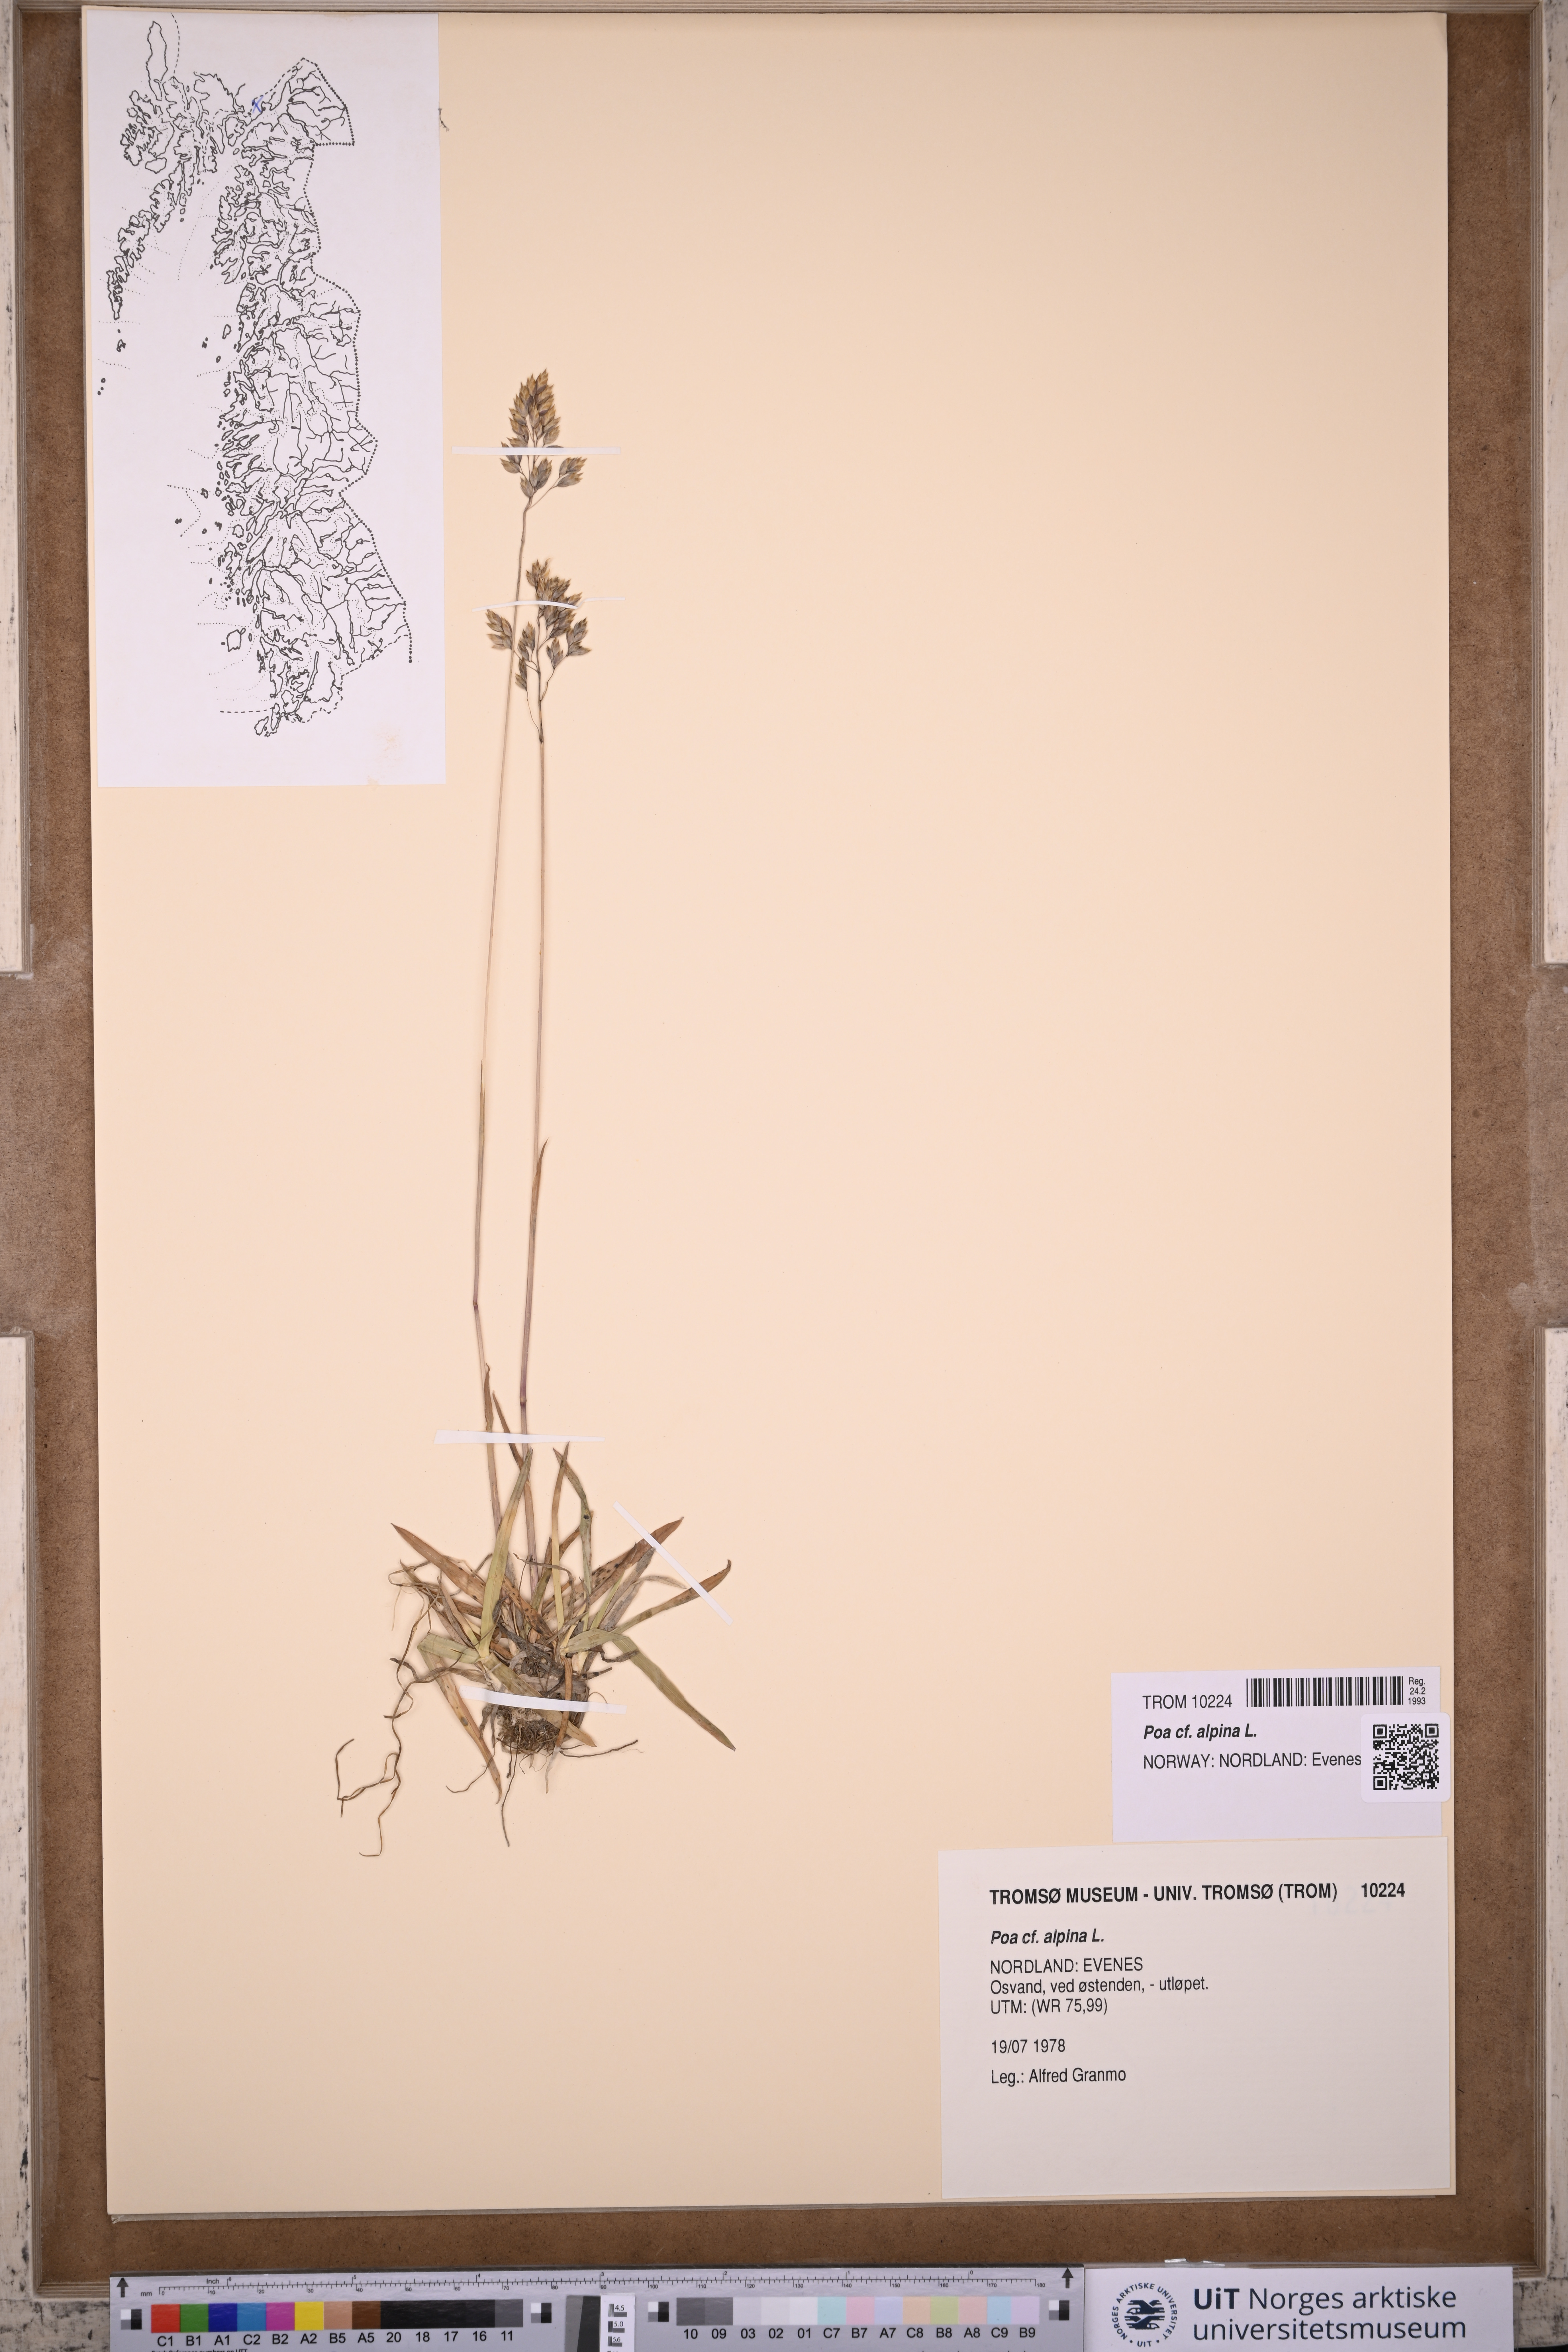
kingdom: Plantae
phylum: Tracheophyta
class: Liliopsida
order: Poales
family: Poaceae
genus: Poa
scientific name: Poa alpina
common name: Alpine bluegrass
